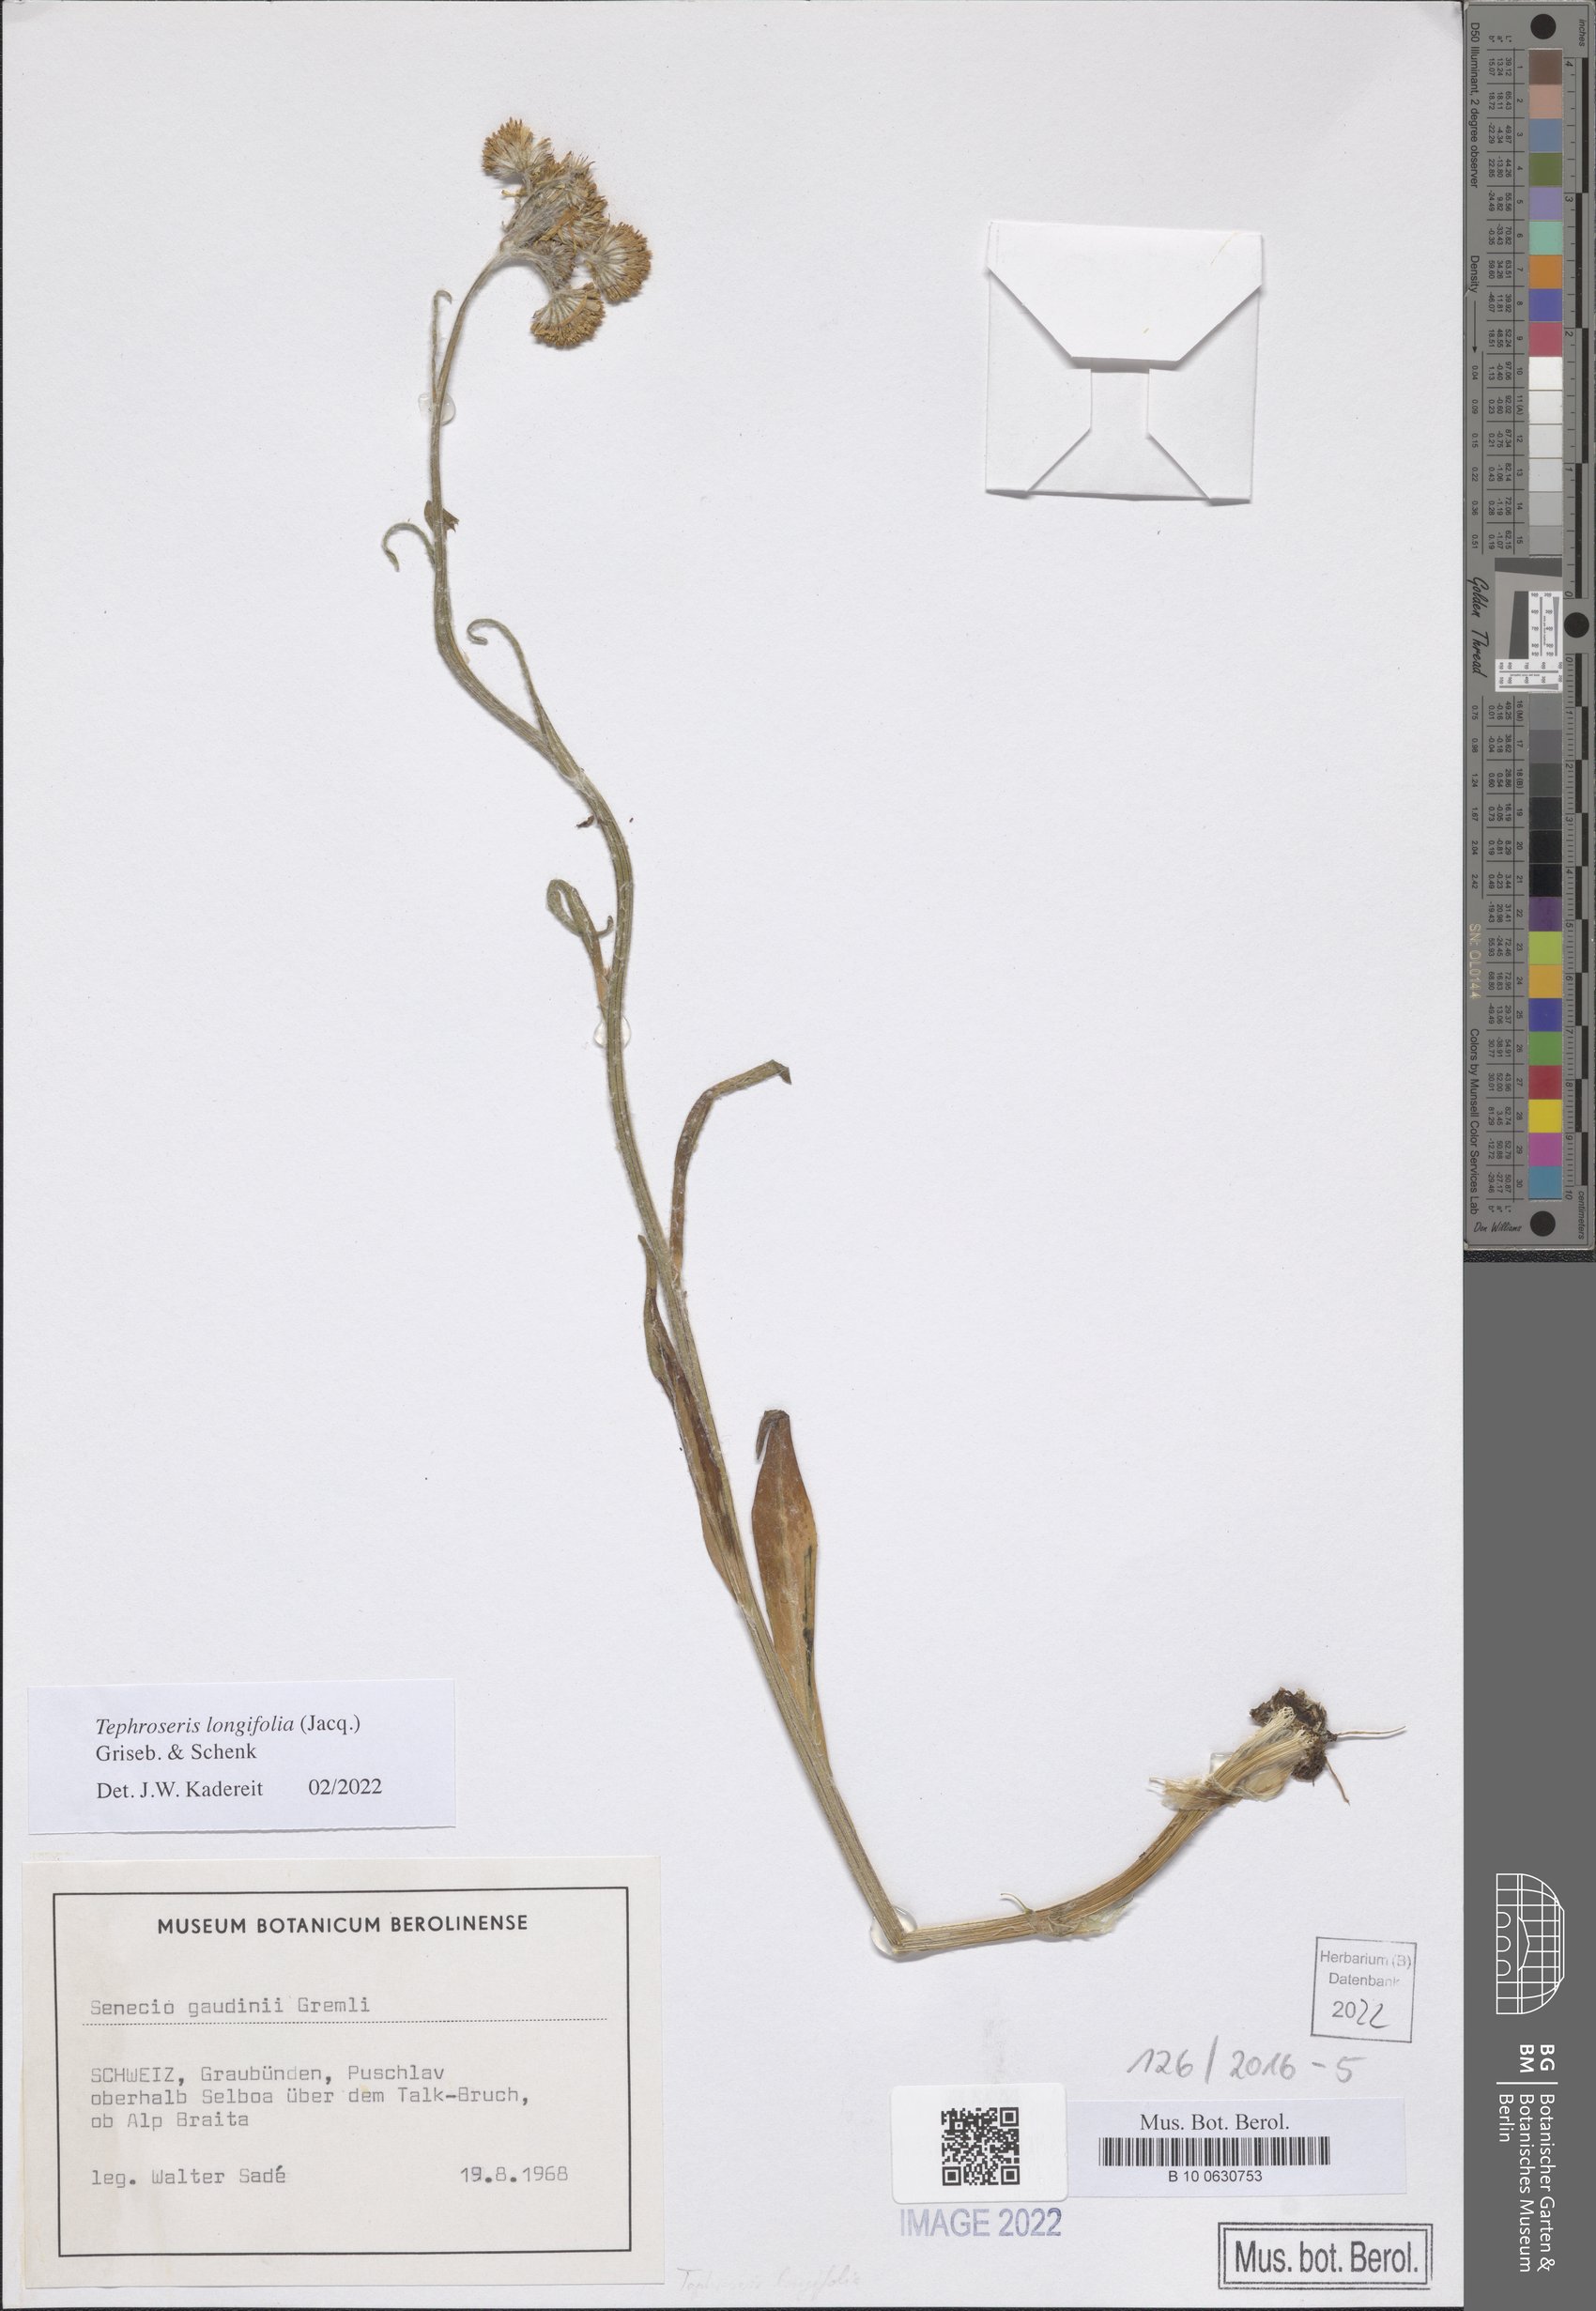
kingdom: Plantae
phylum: Tracheophyta
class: Magnoliopsida
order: Asterales
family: Asteraceae
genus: Tephroseris
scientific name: Tephroseris longifolia
